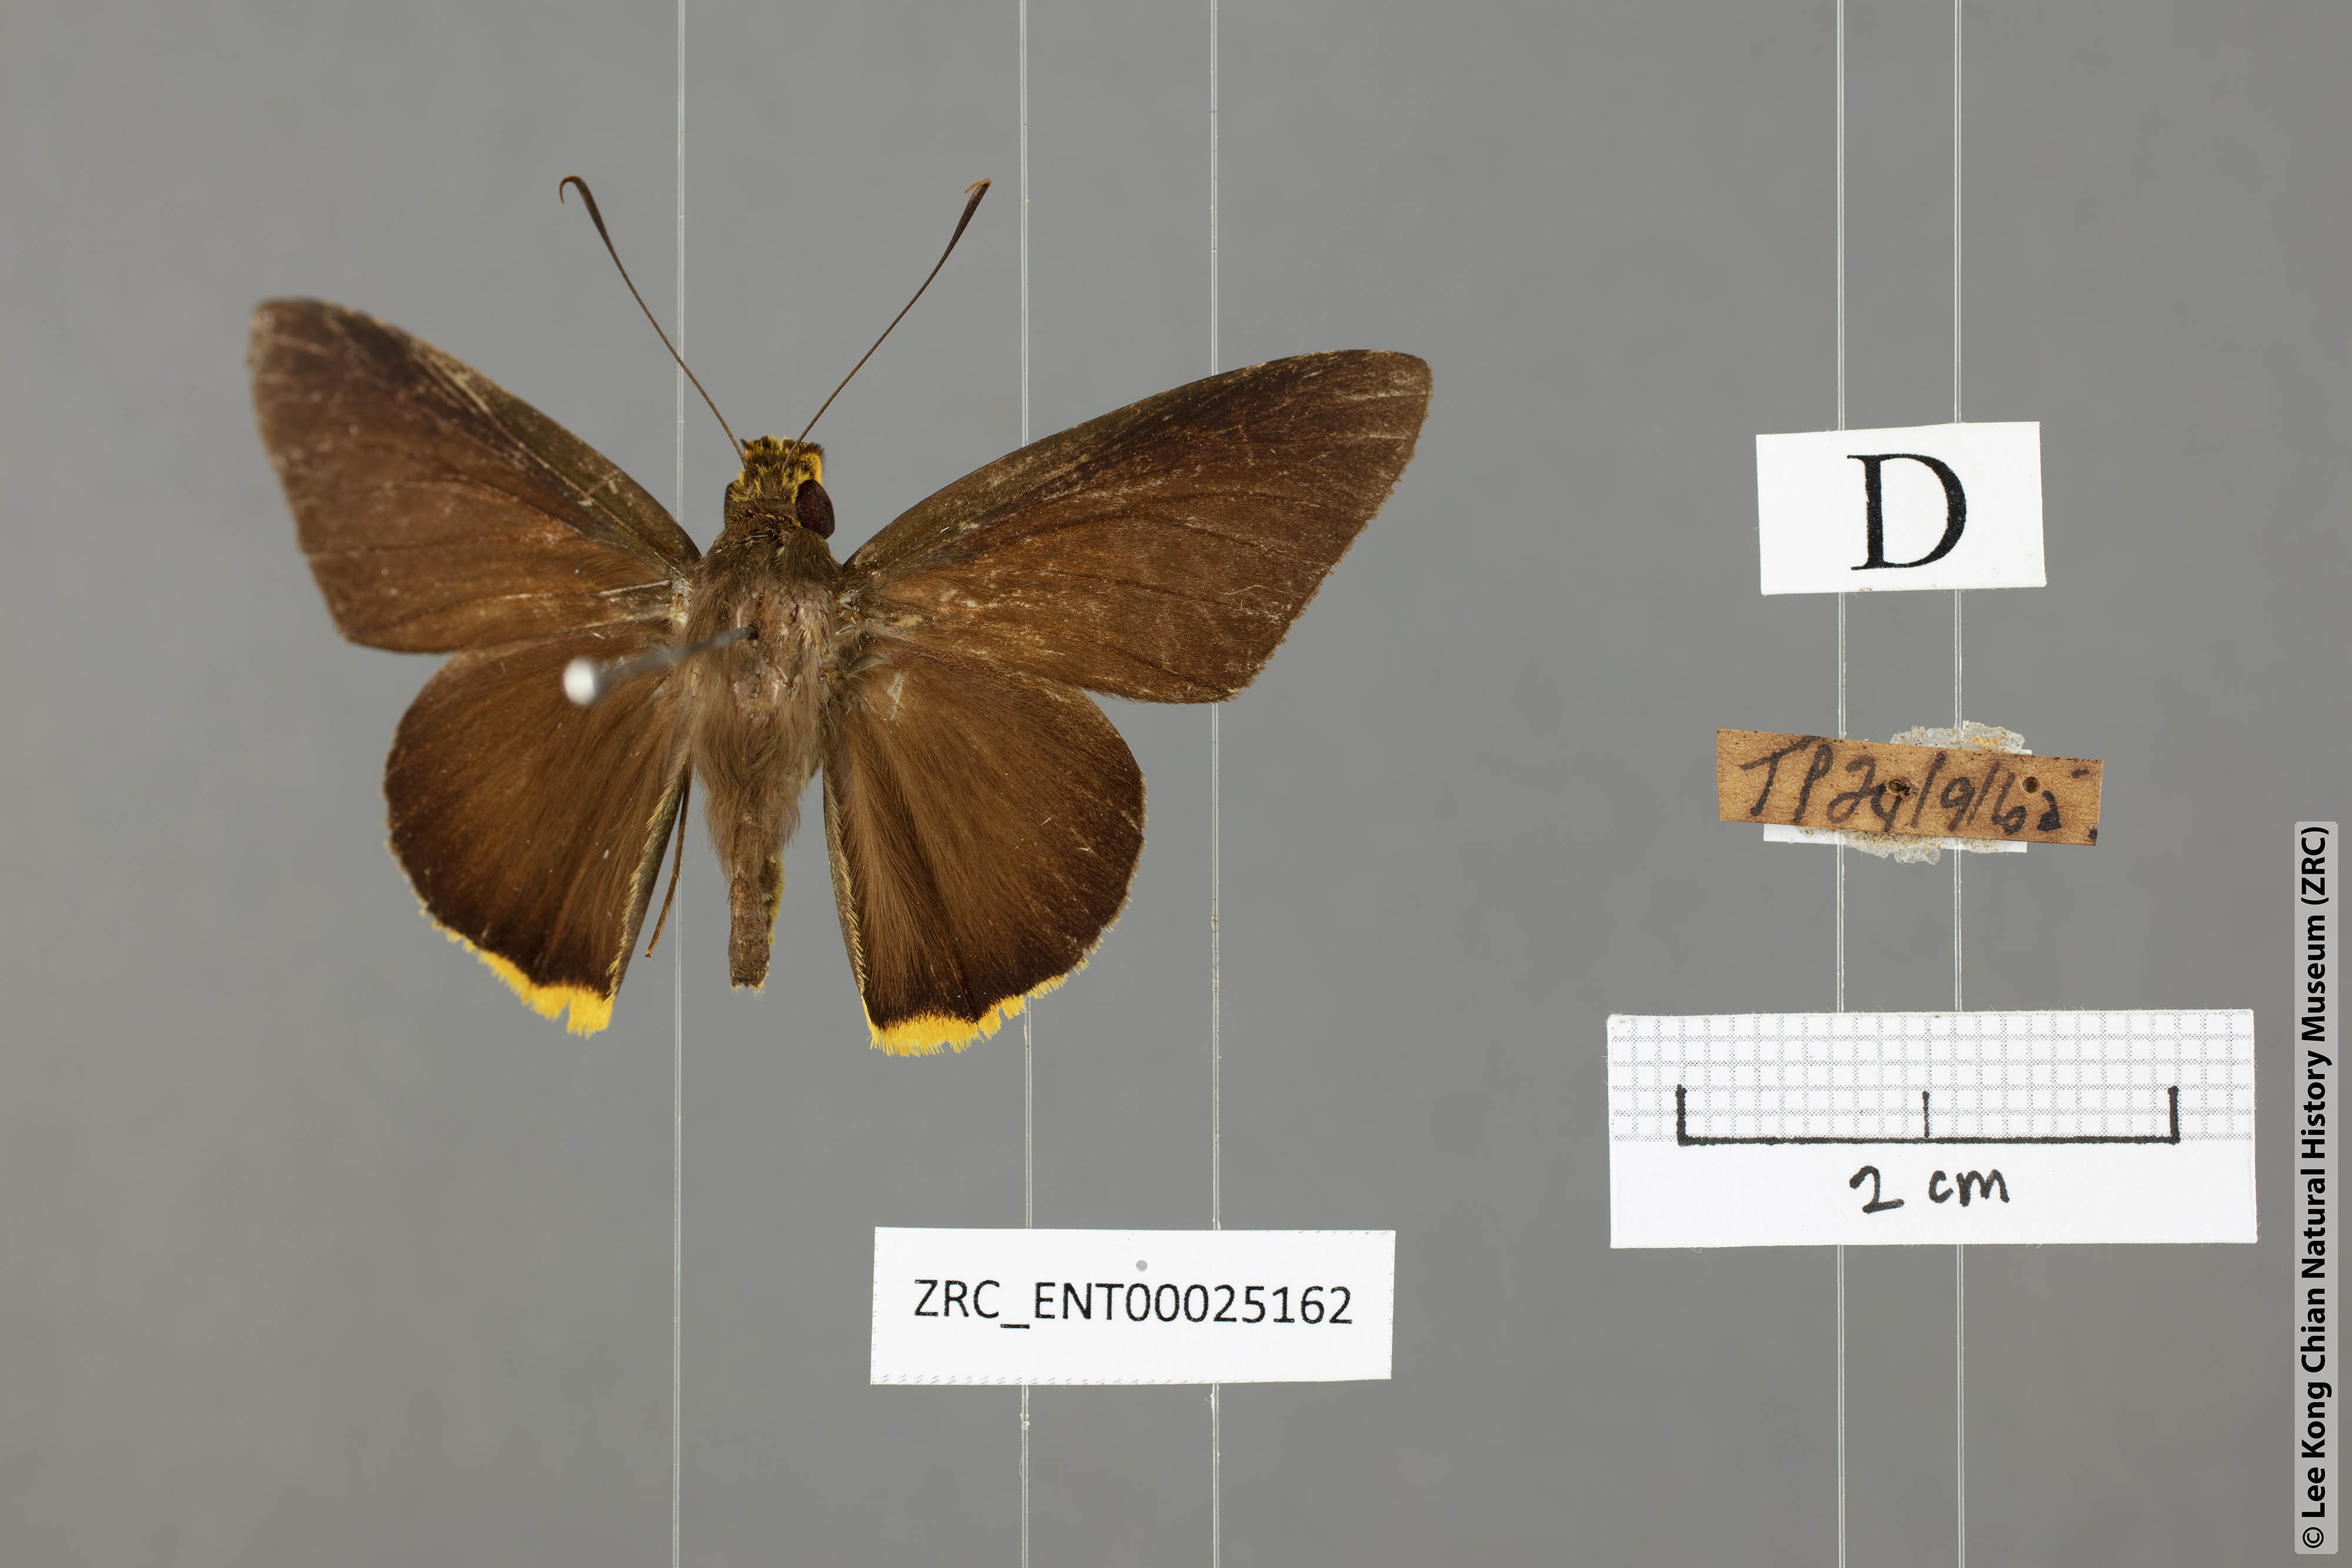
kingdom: Animalia
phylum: Arthropoda
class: Insecta
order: Lepidoptera
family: Hesperiidae
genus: Pirdana
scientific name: Pirdana distanti
